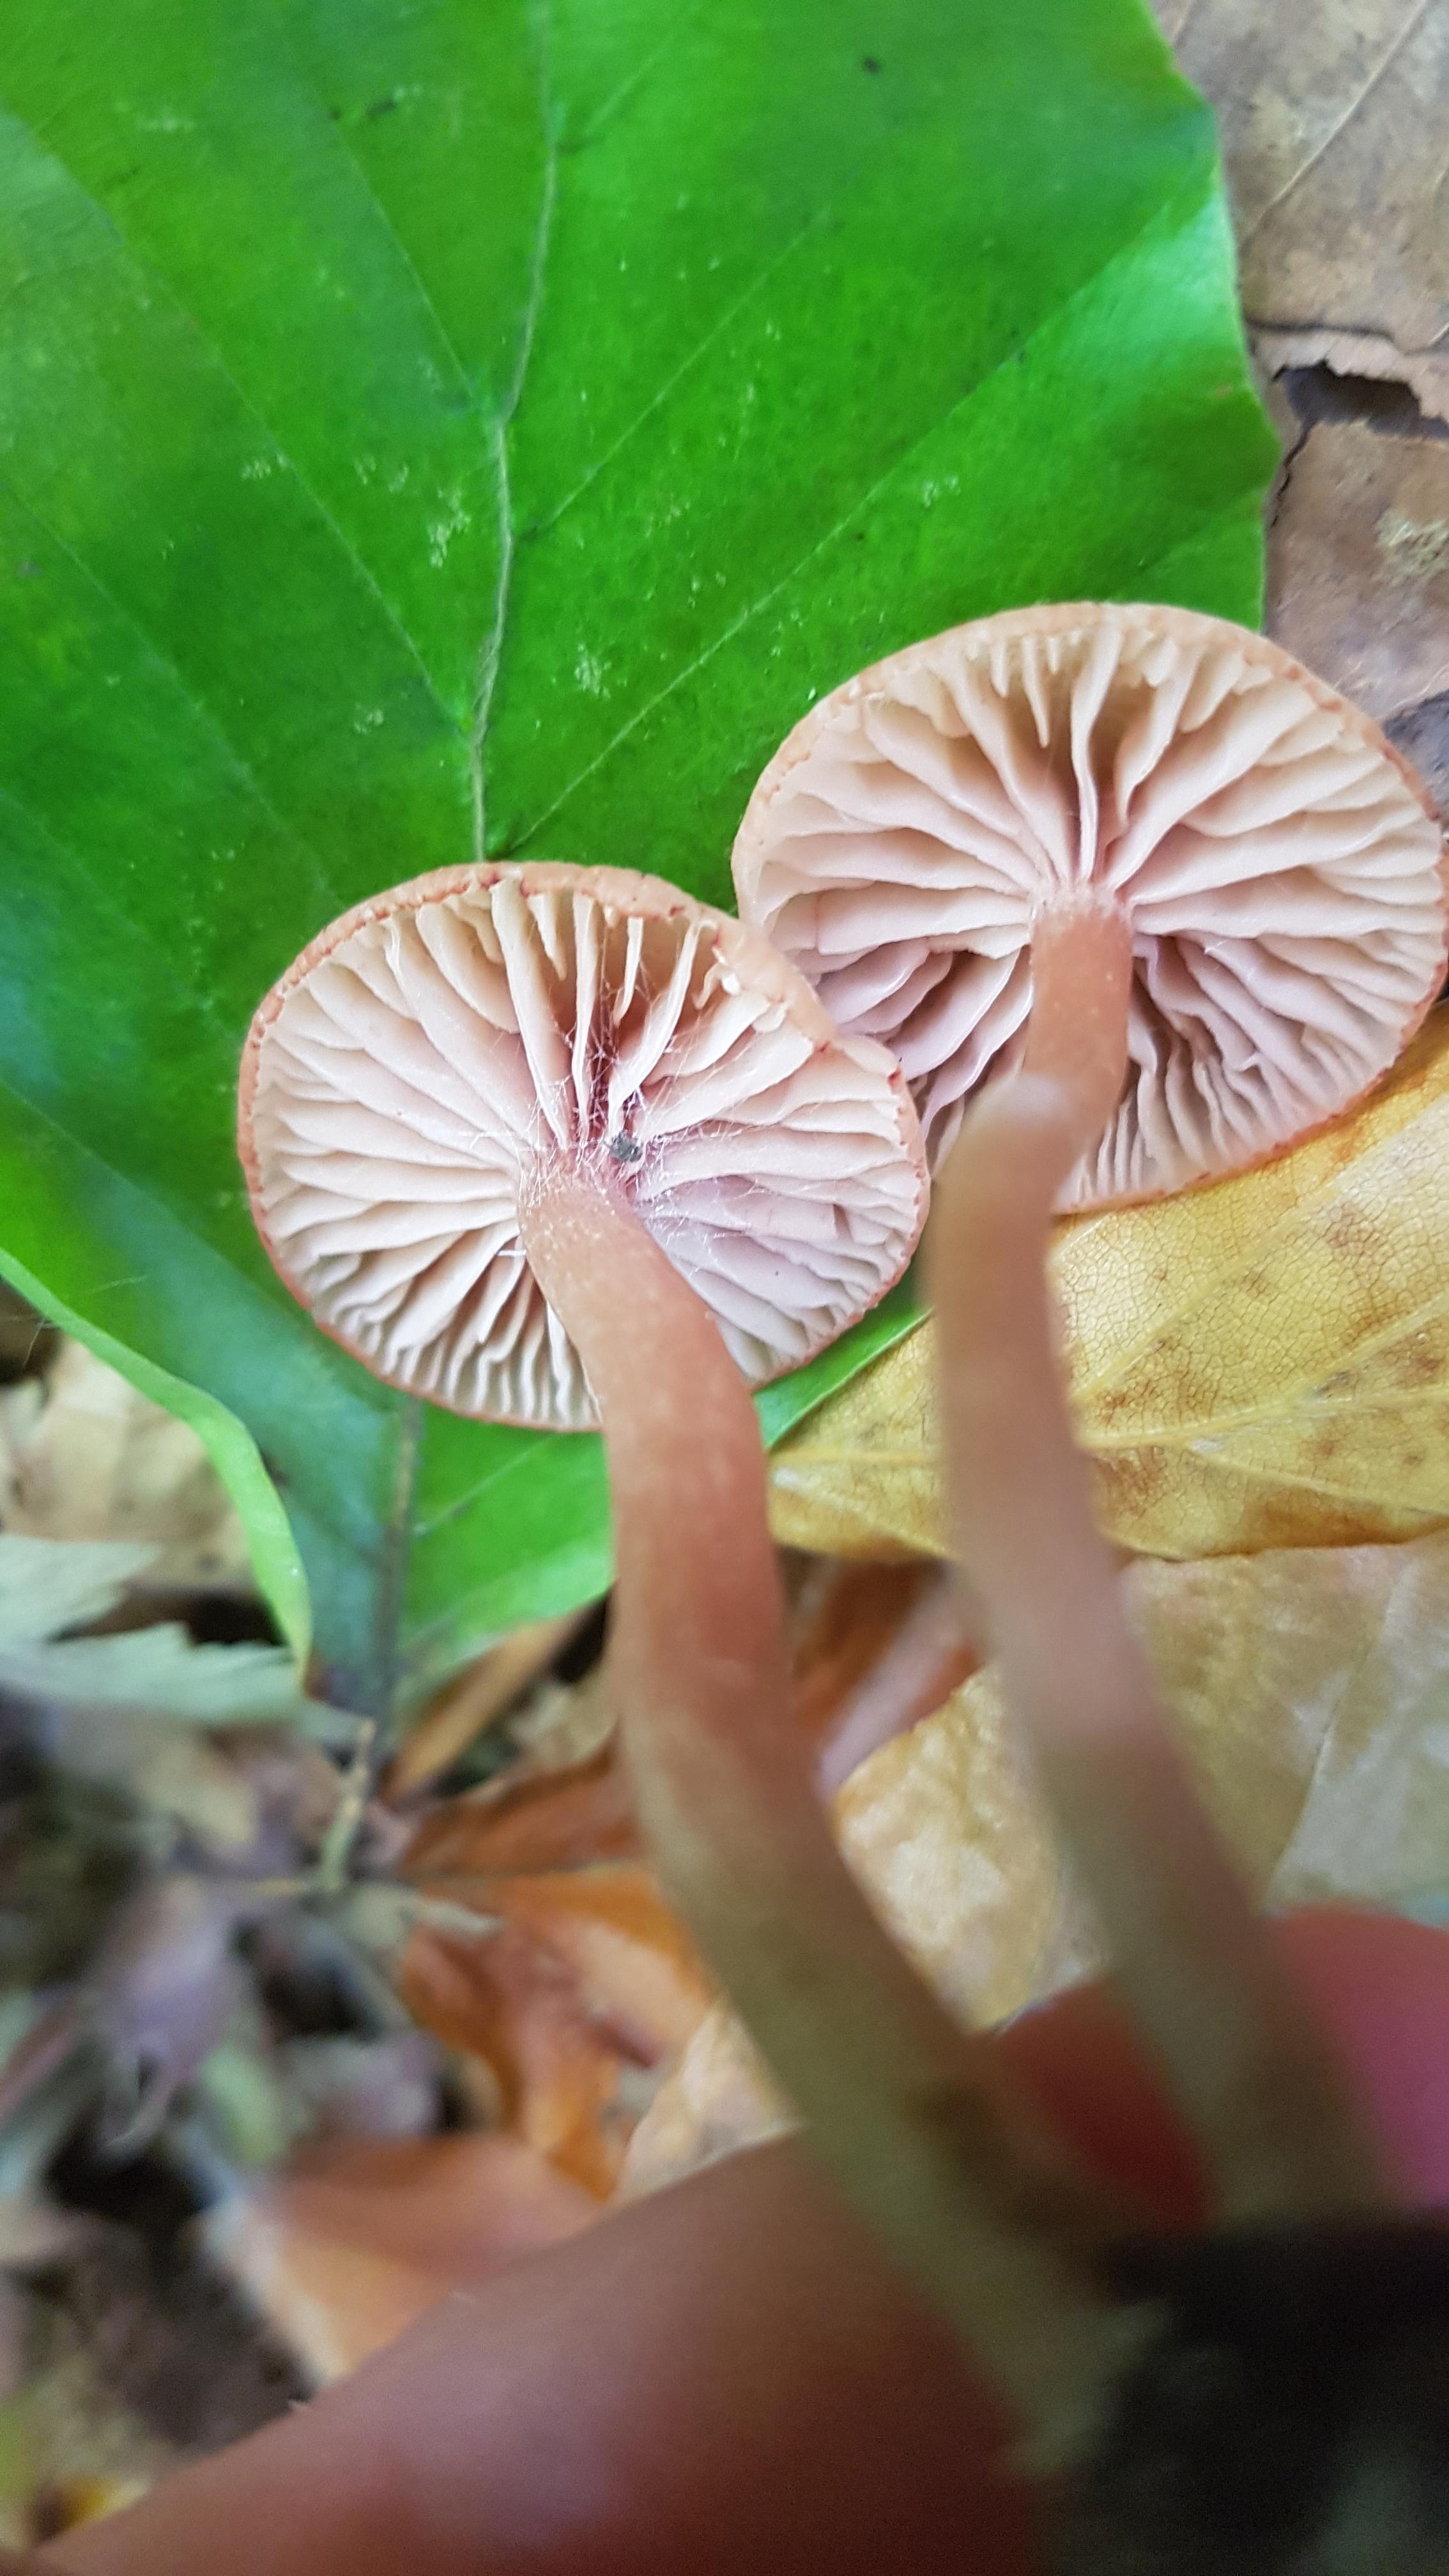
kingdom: Fungi
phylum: Basidiomycota
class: Agaricomycetes
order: Agaricales
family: Hydnangiaceae
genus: Laccaria
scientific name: Laccaria laccata
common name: rød ametysthat
